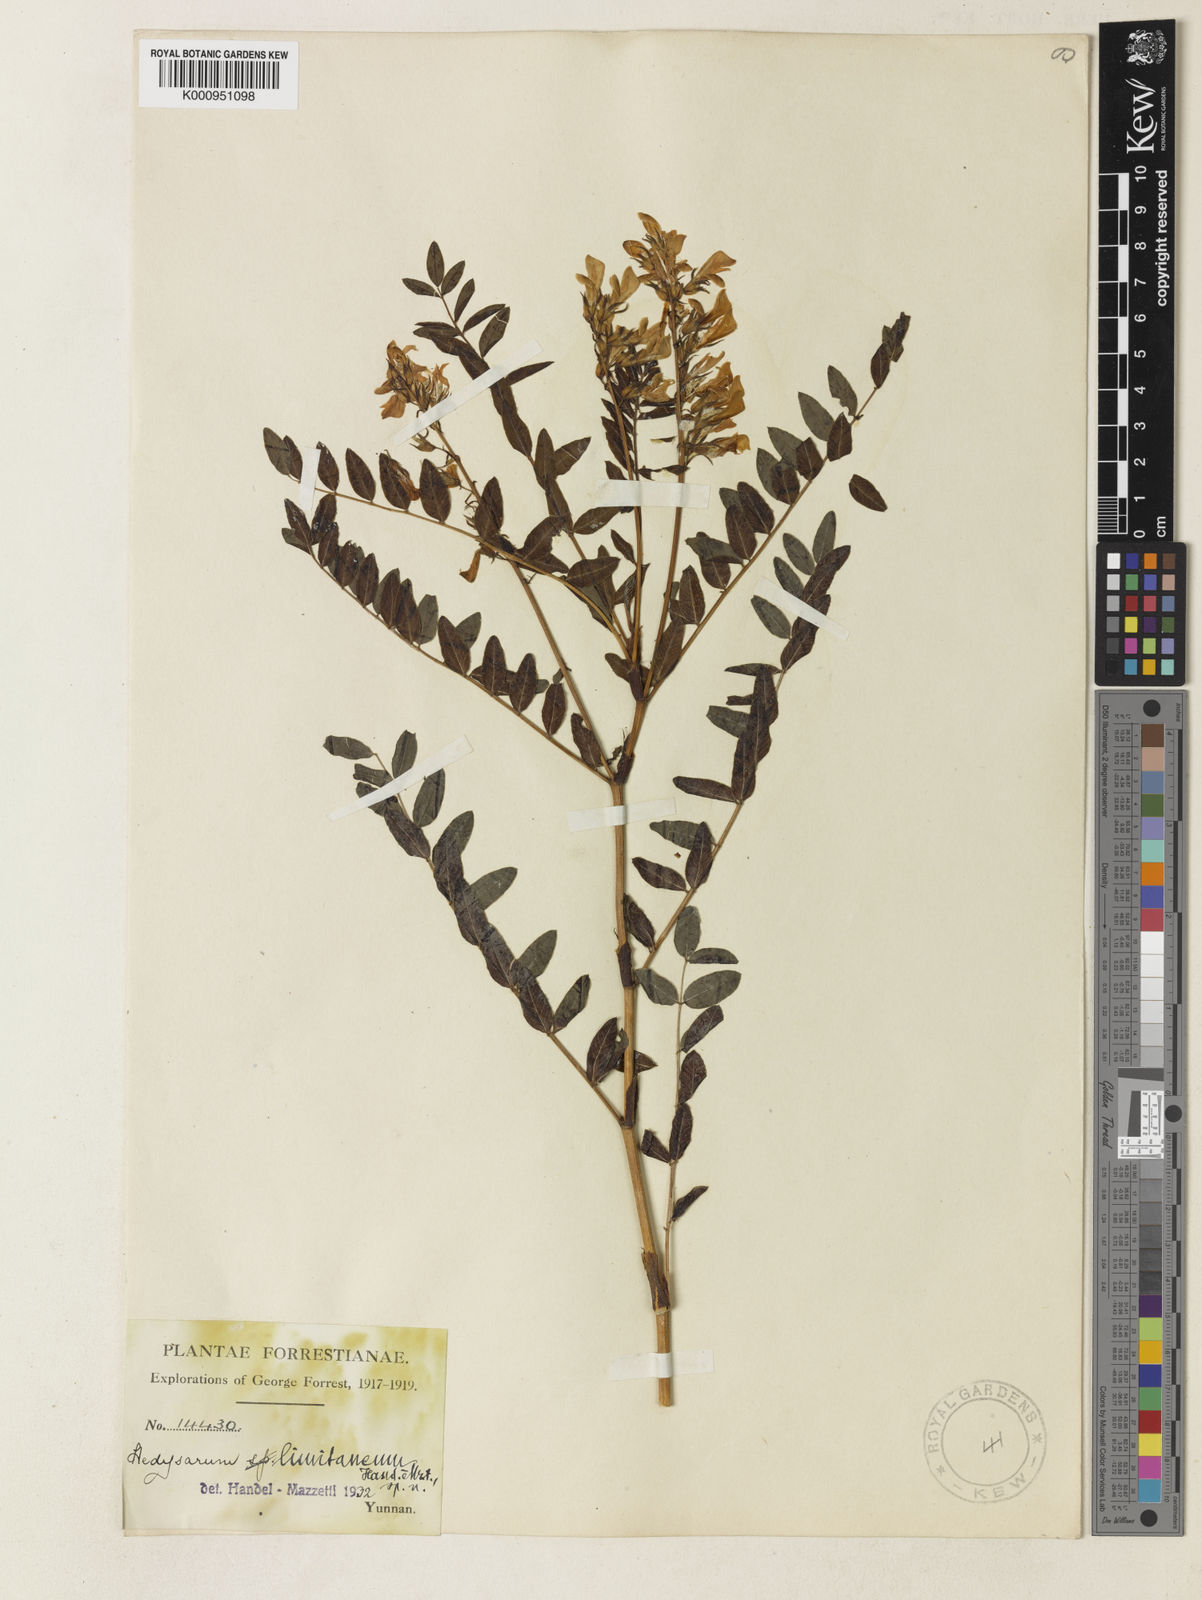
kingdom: Plantae
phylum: Tracheophyta
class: Magnoliopsida
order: Fabales
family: Fabaceae
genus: Hedysarum
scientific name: Hedysarum limitaneum
